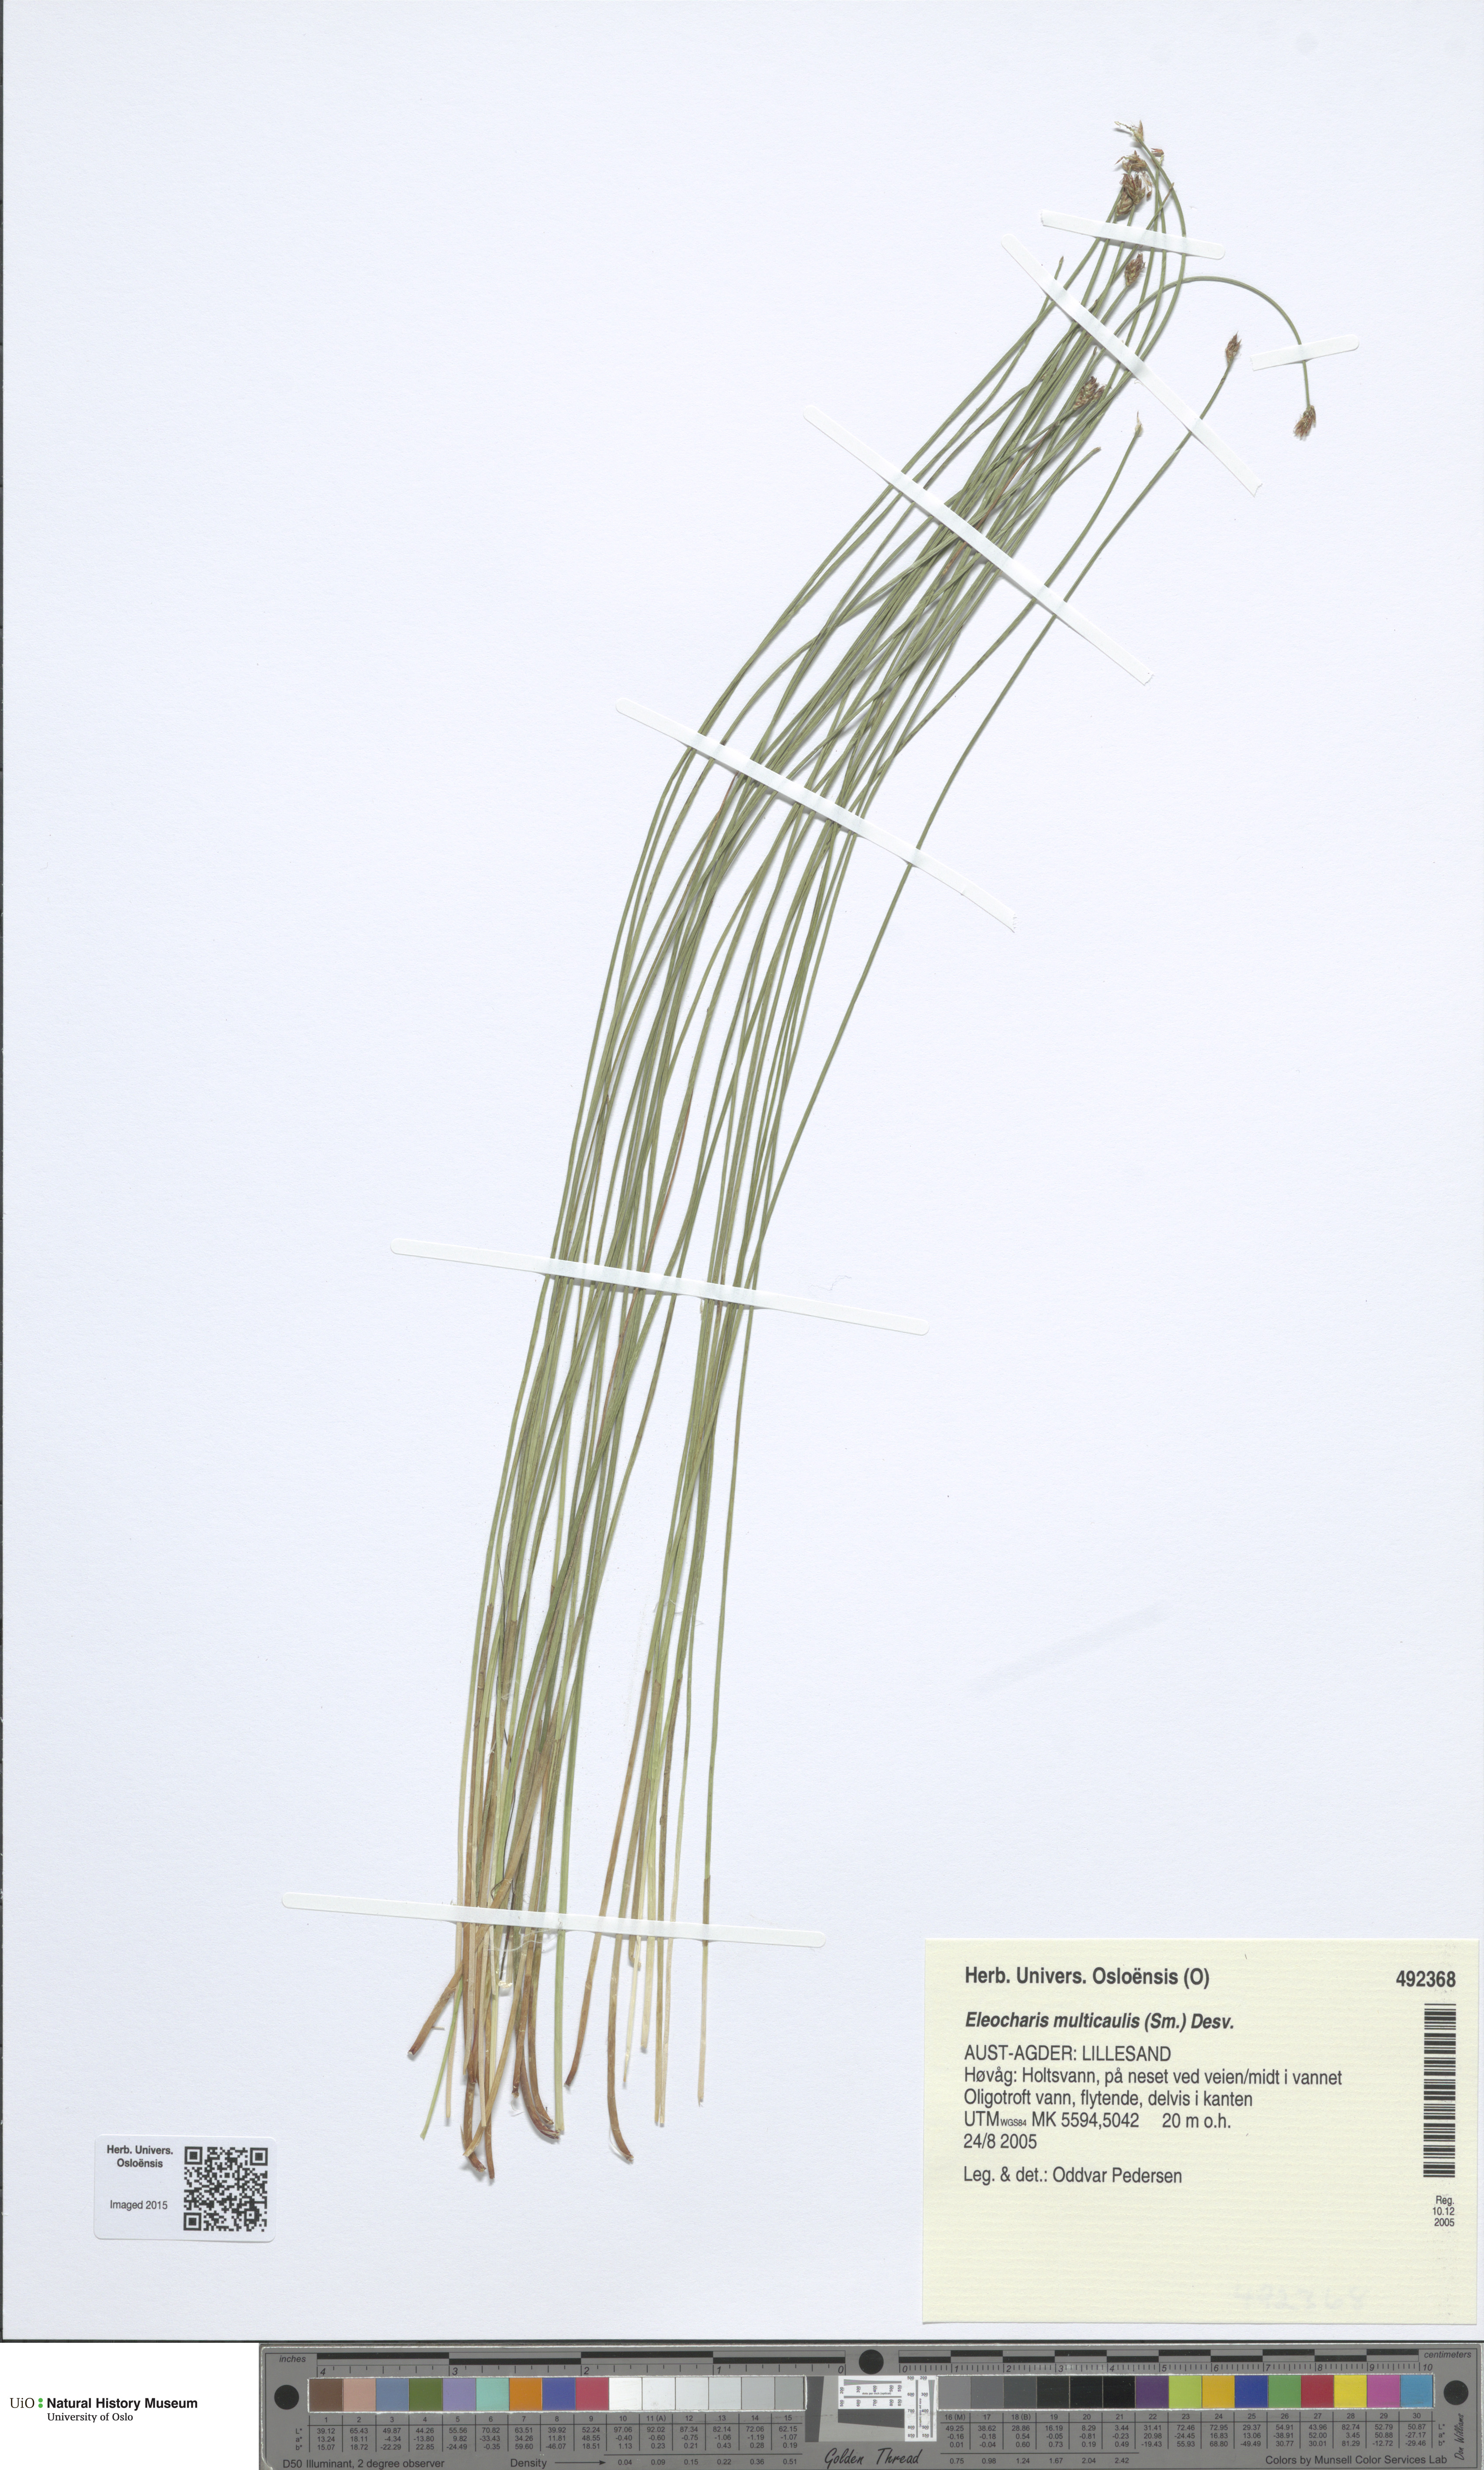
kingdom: Plantae
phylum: Tracheophyta
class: Liliopsida
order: Poales
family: Cyperaceae
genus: Eleocharis
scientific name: Eleocharis multicaulis
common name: Many-stalked spike-rush
